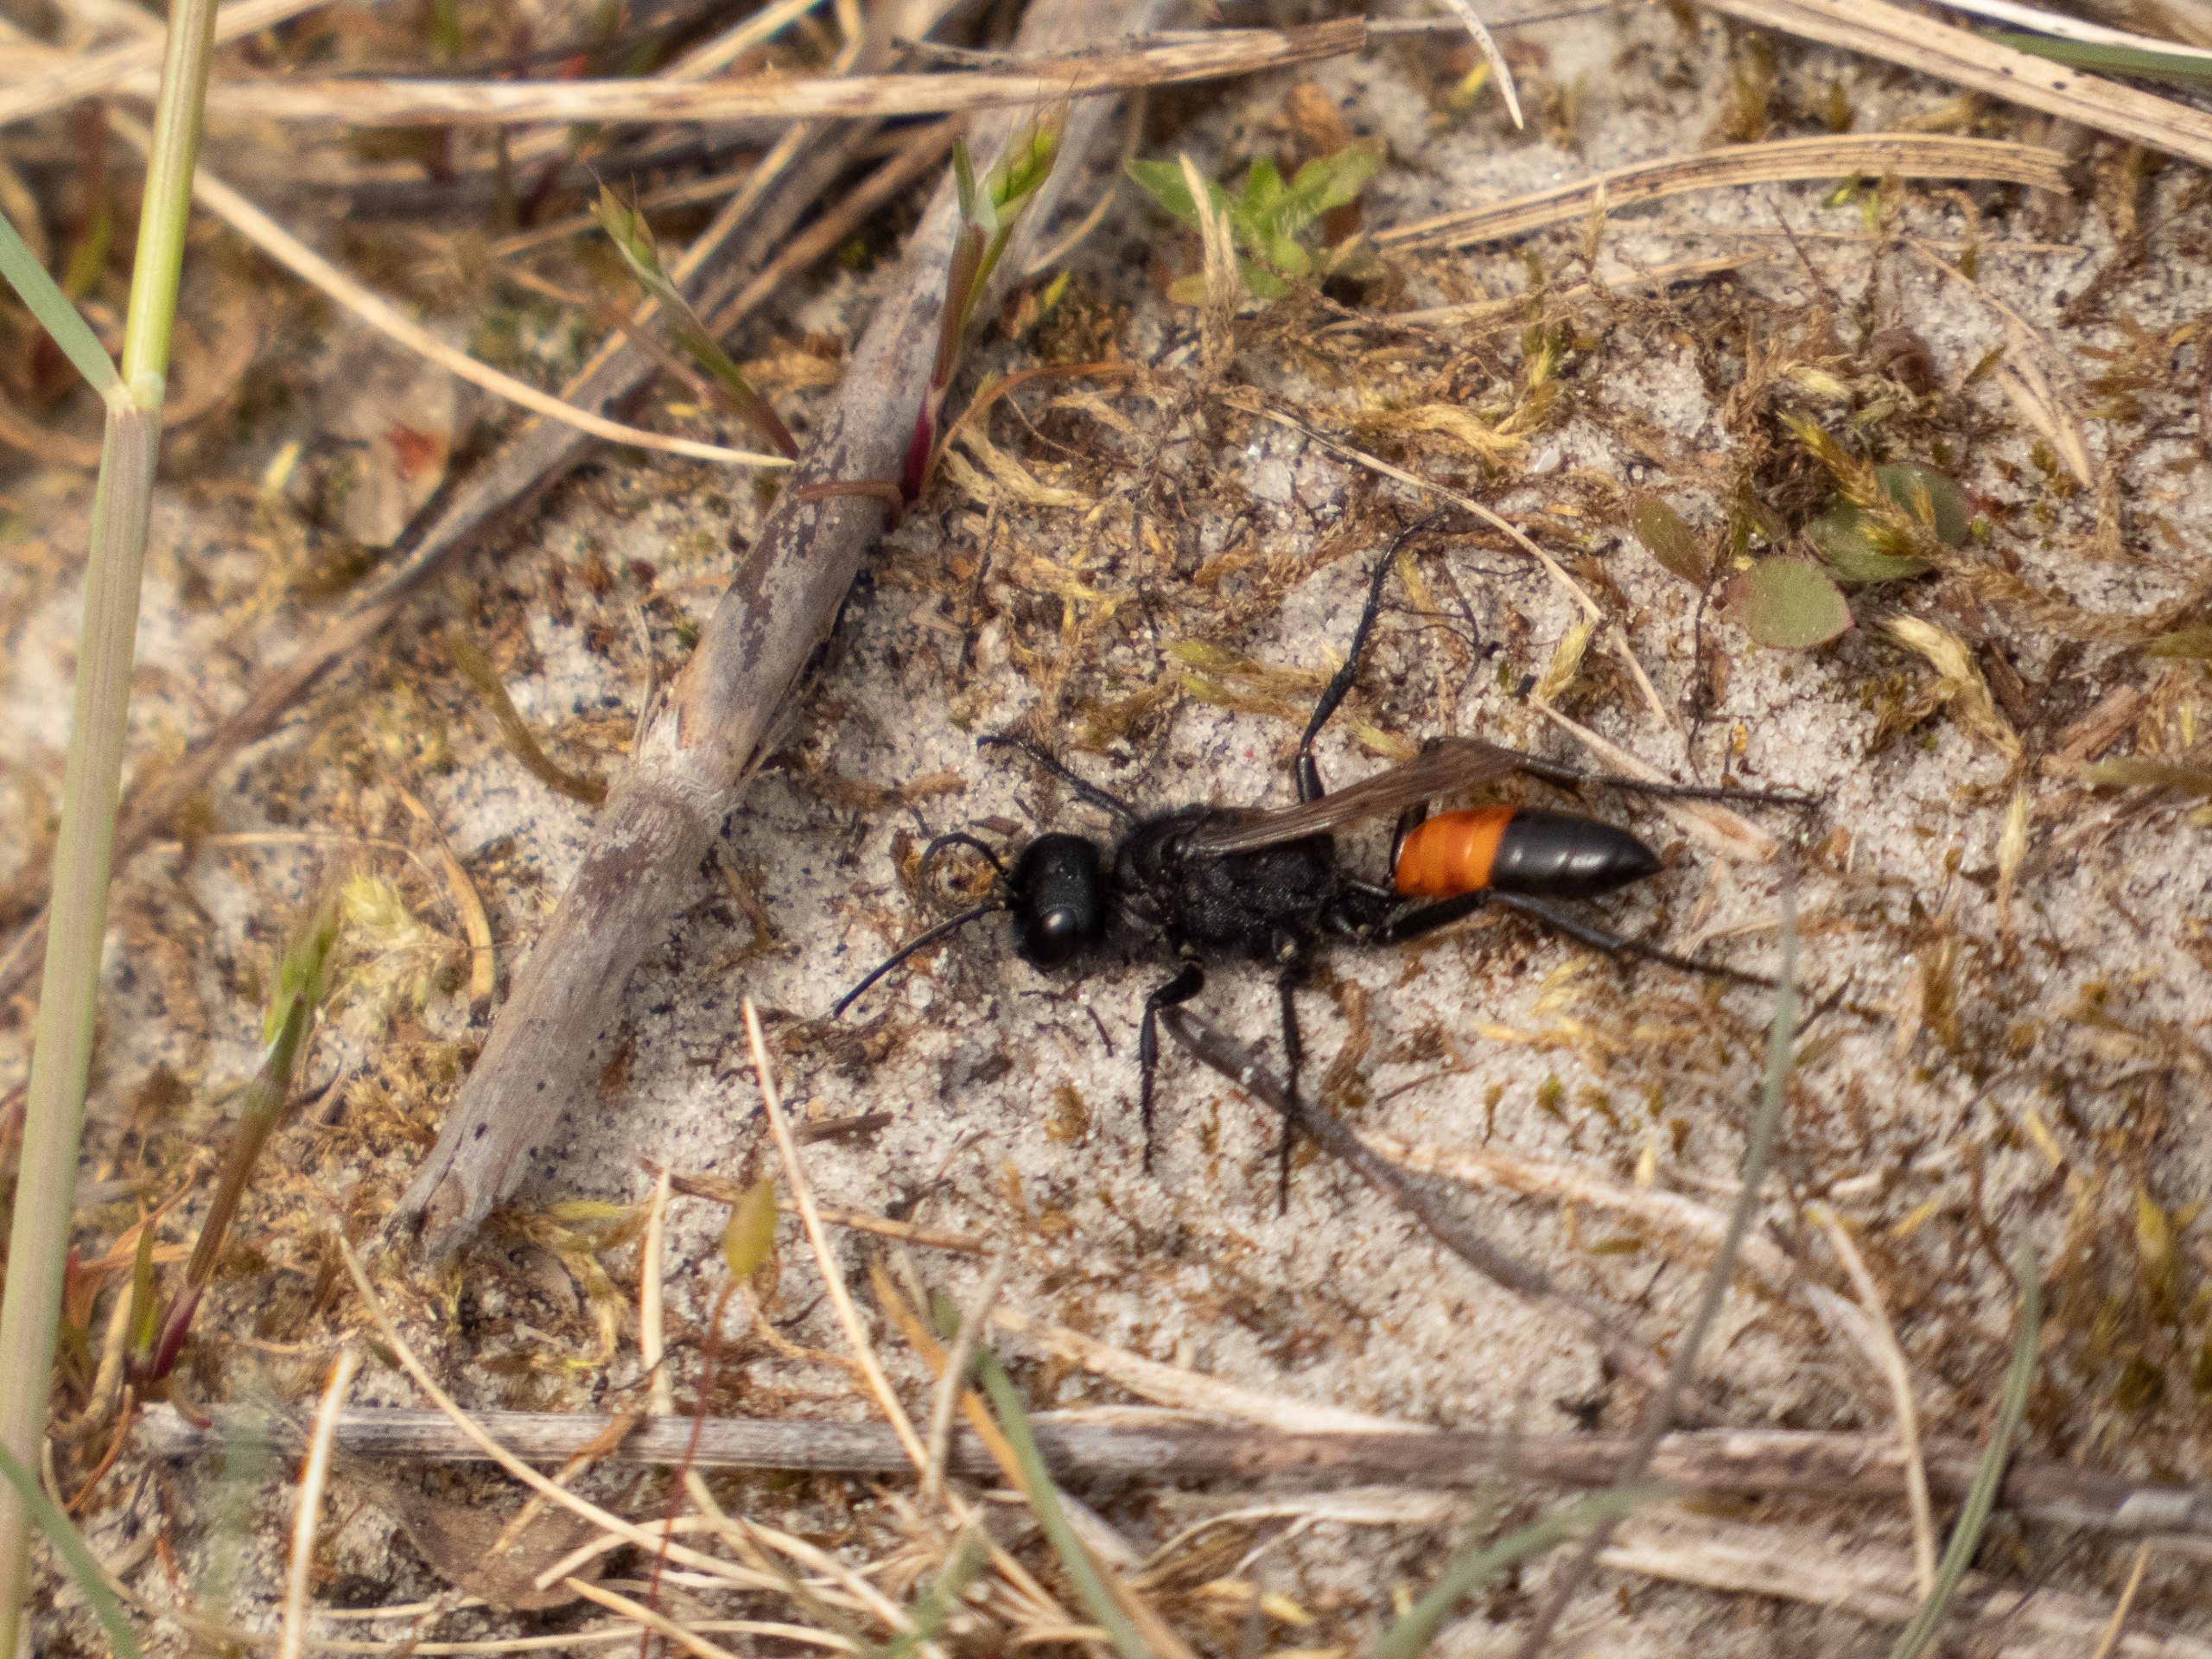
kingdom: Animalia
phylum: Arthropoda
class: Insecta
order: Hymenoptera
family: Sphecidae
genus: Podalonia
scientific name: Podalonia
